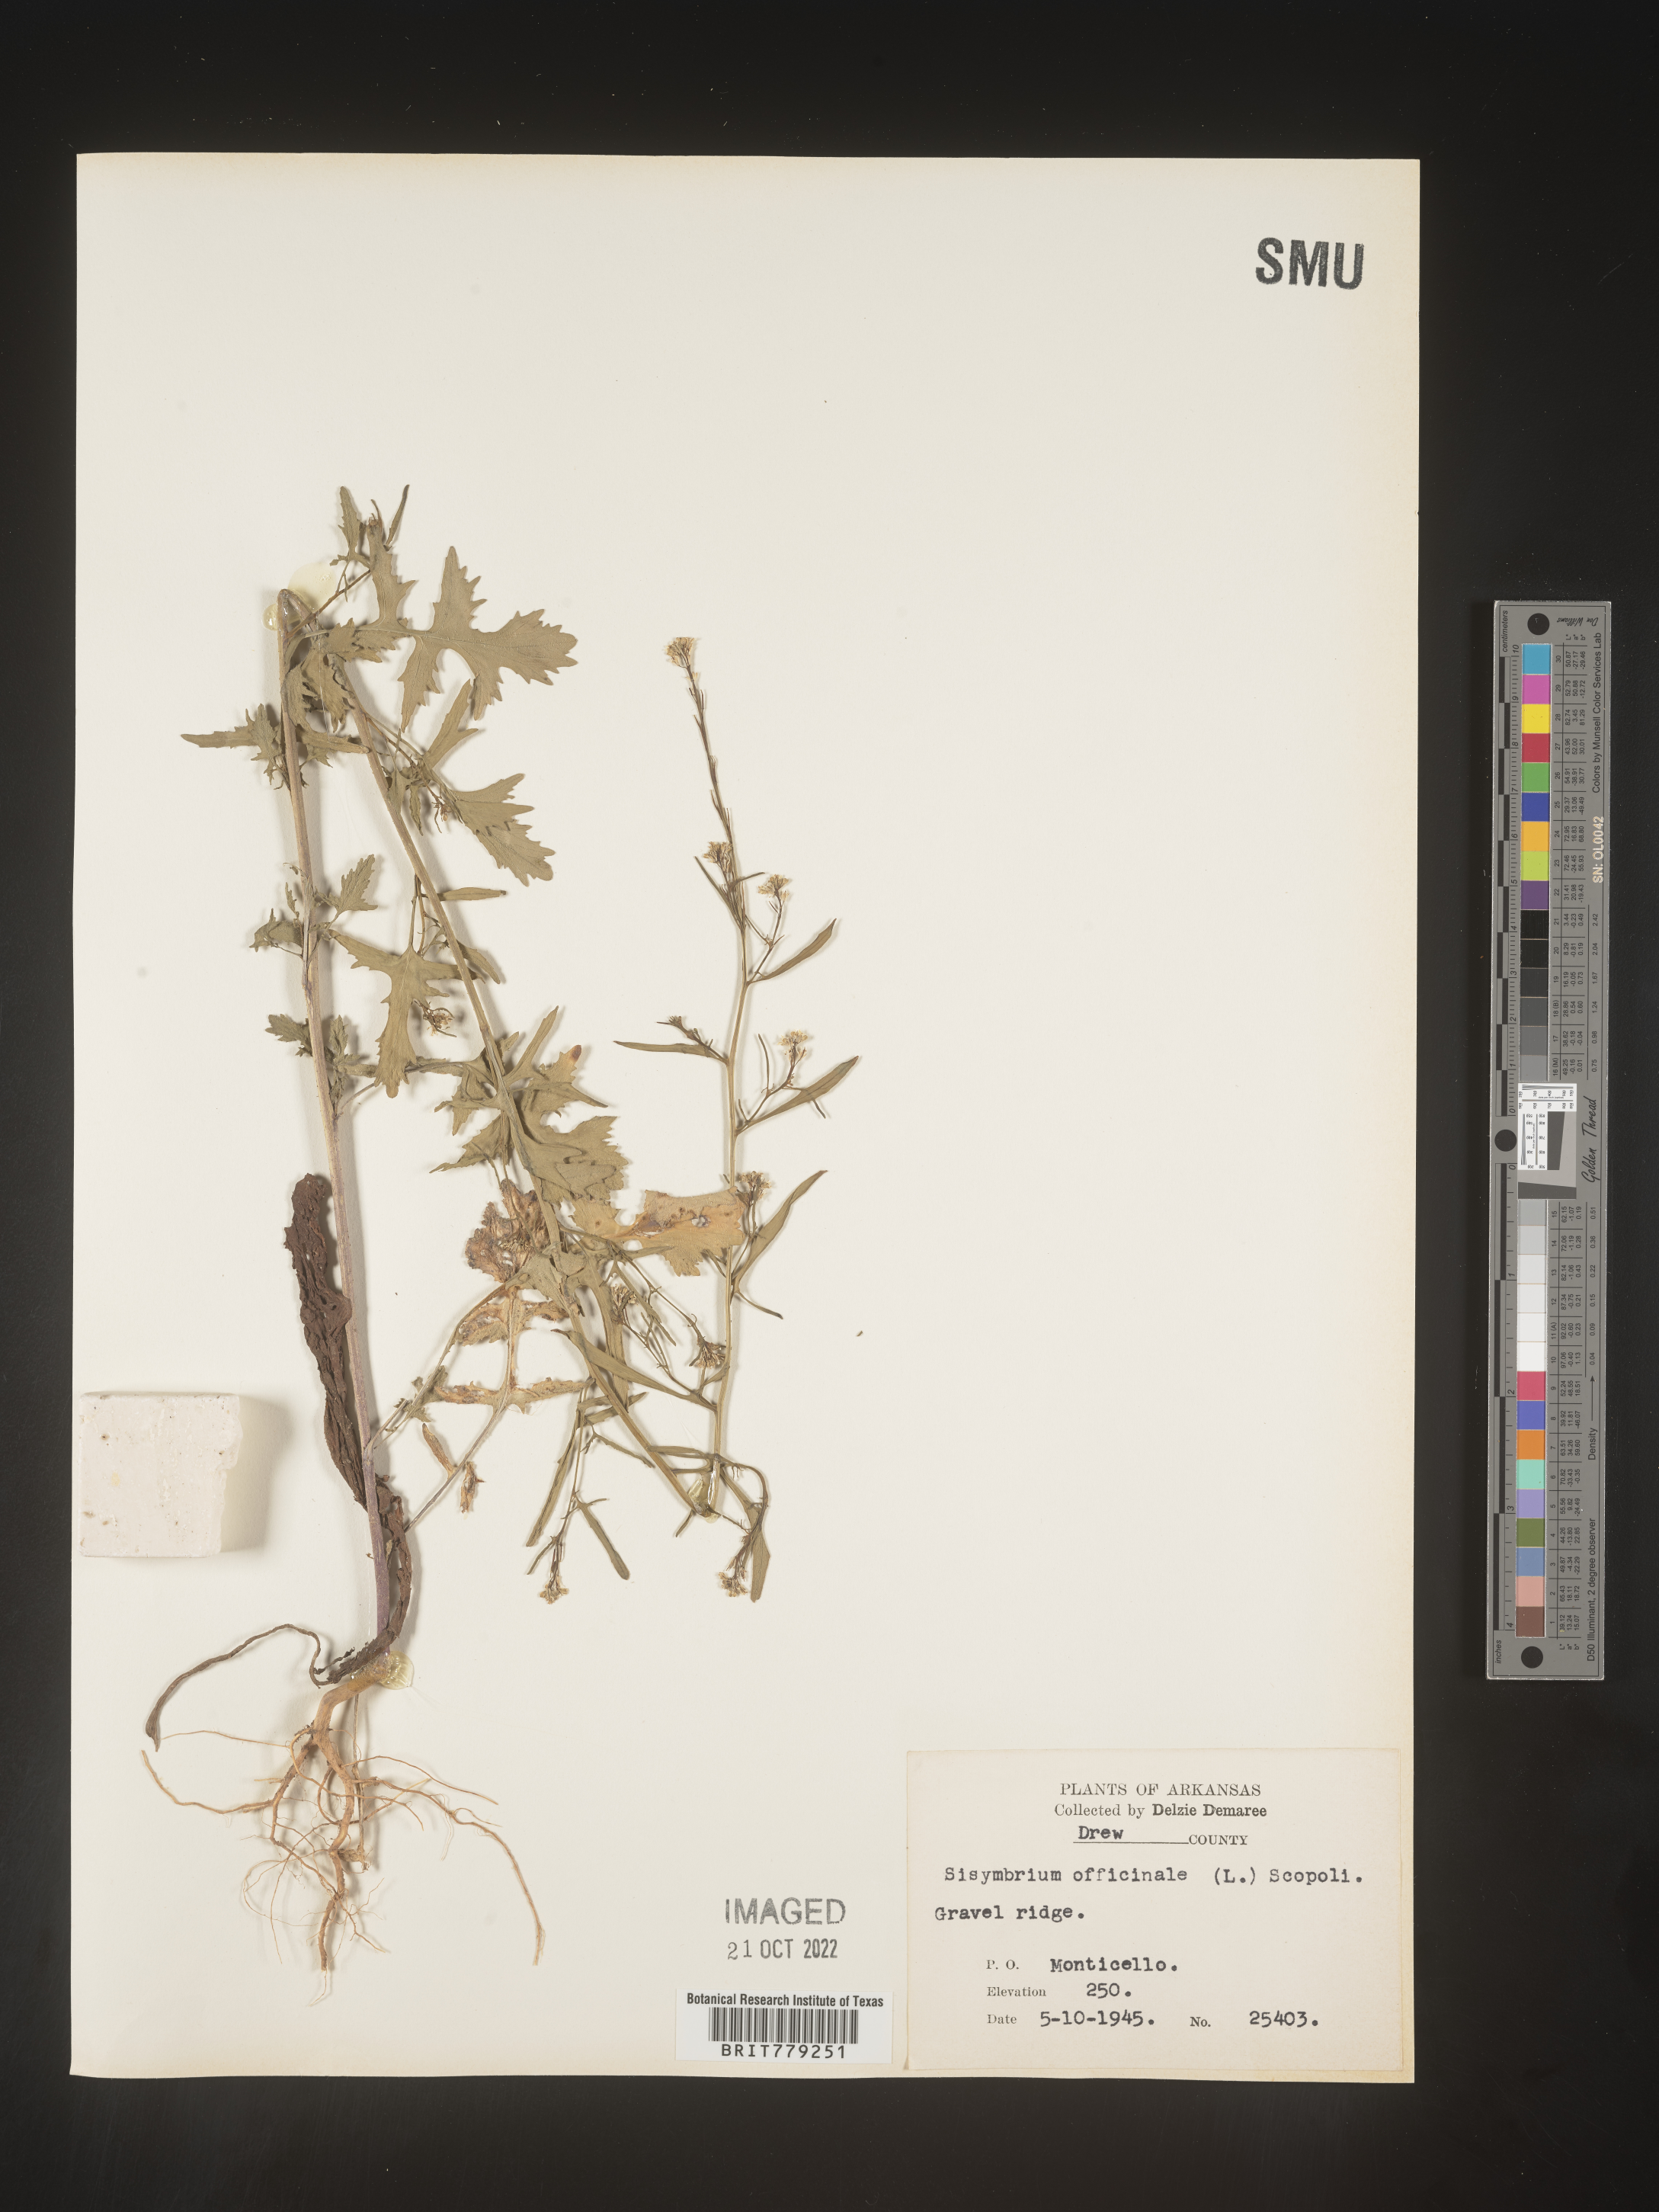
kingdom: Plantae
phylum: Tracheophyta
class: Magnoliopsida
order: Brassicales
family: Brassicaceae
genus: Sisymbrium
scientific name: Sisymbrium officinale
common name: Hedge mustard
